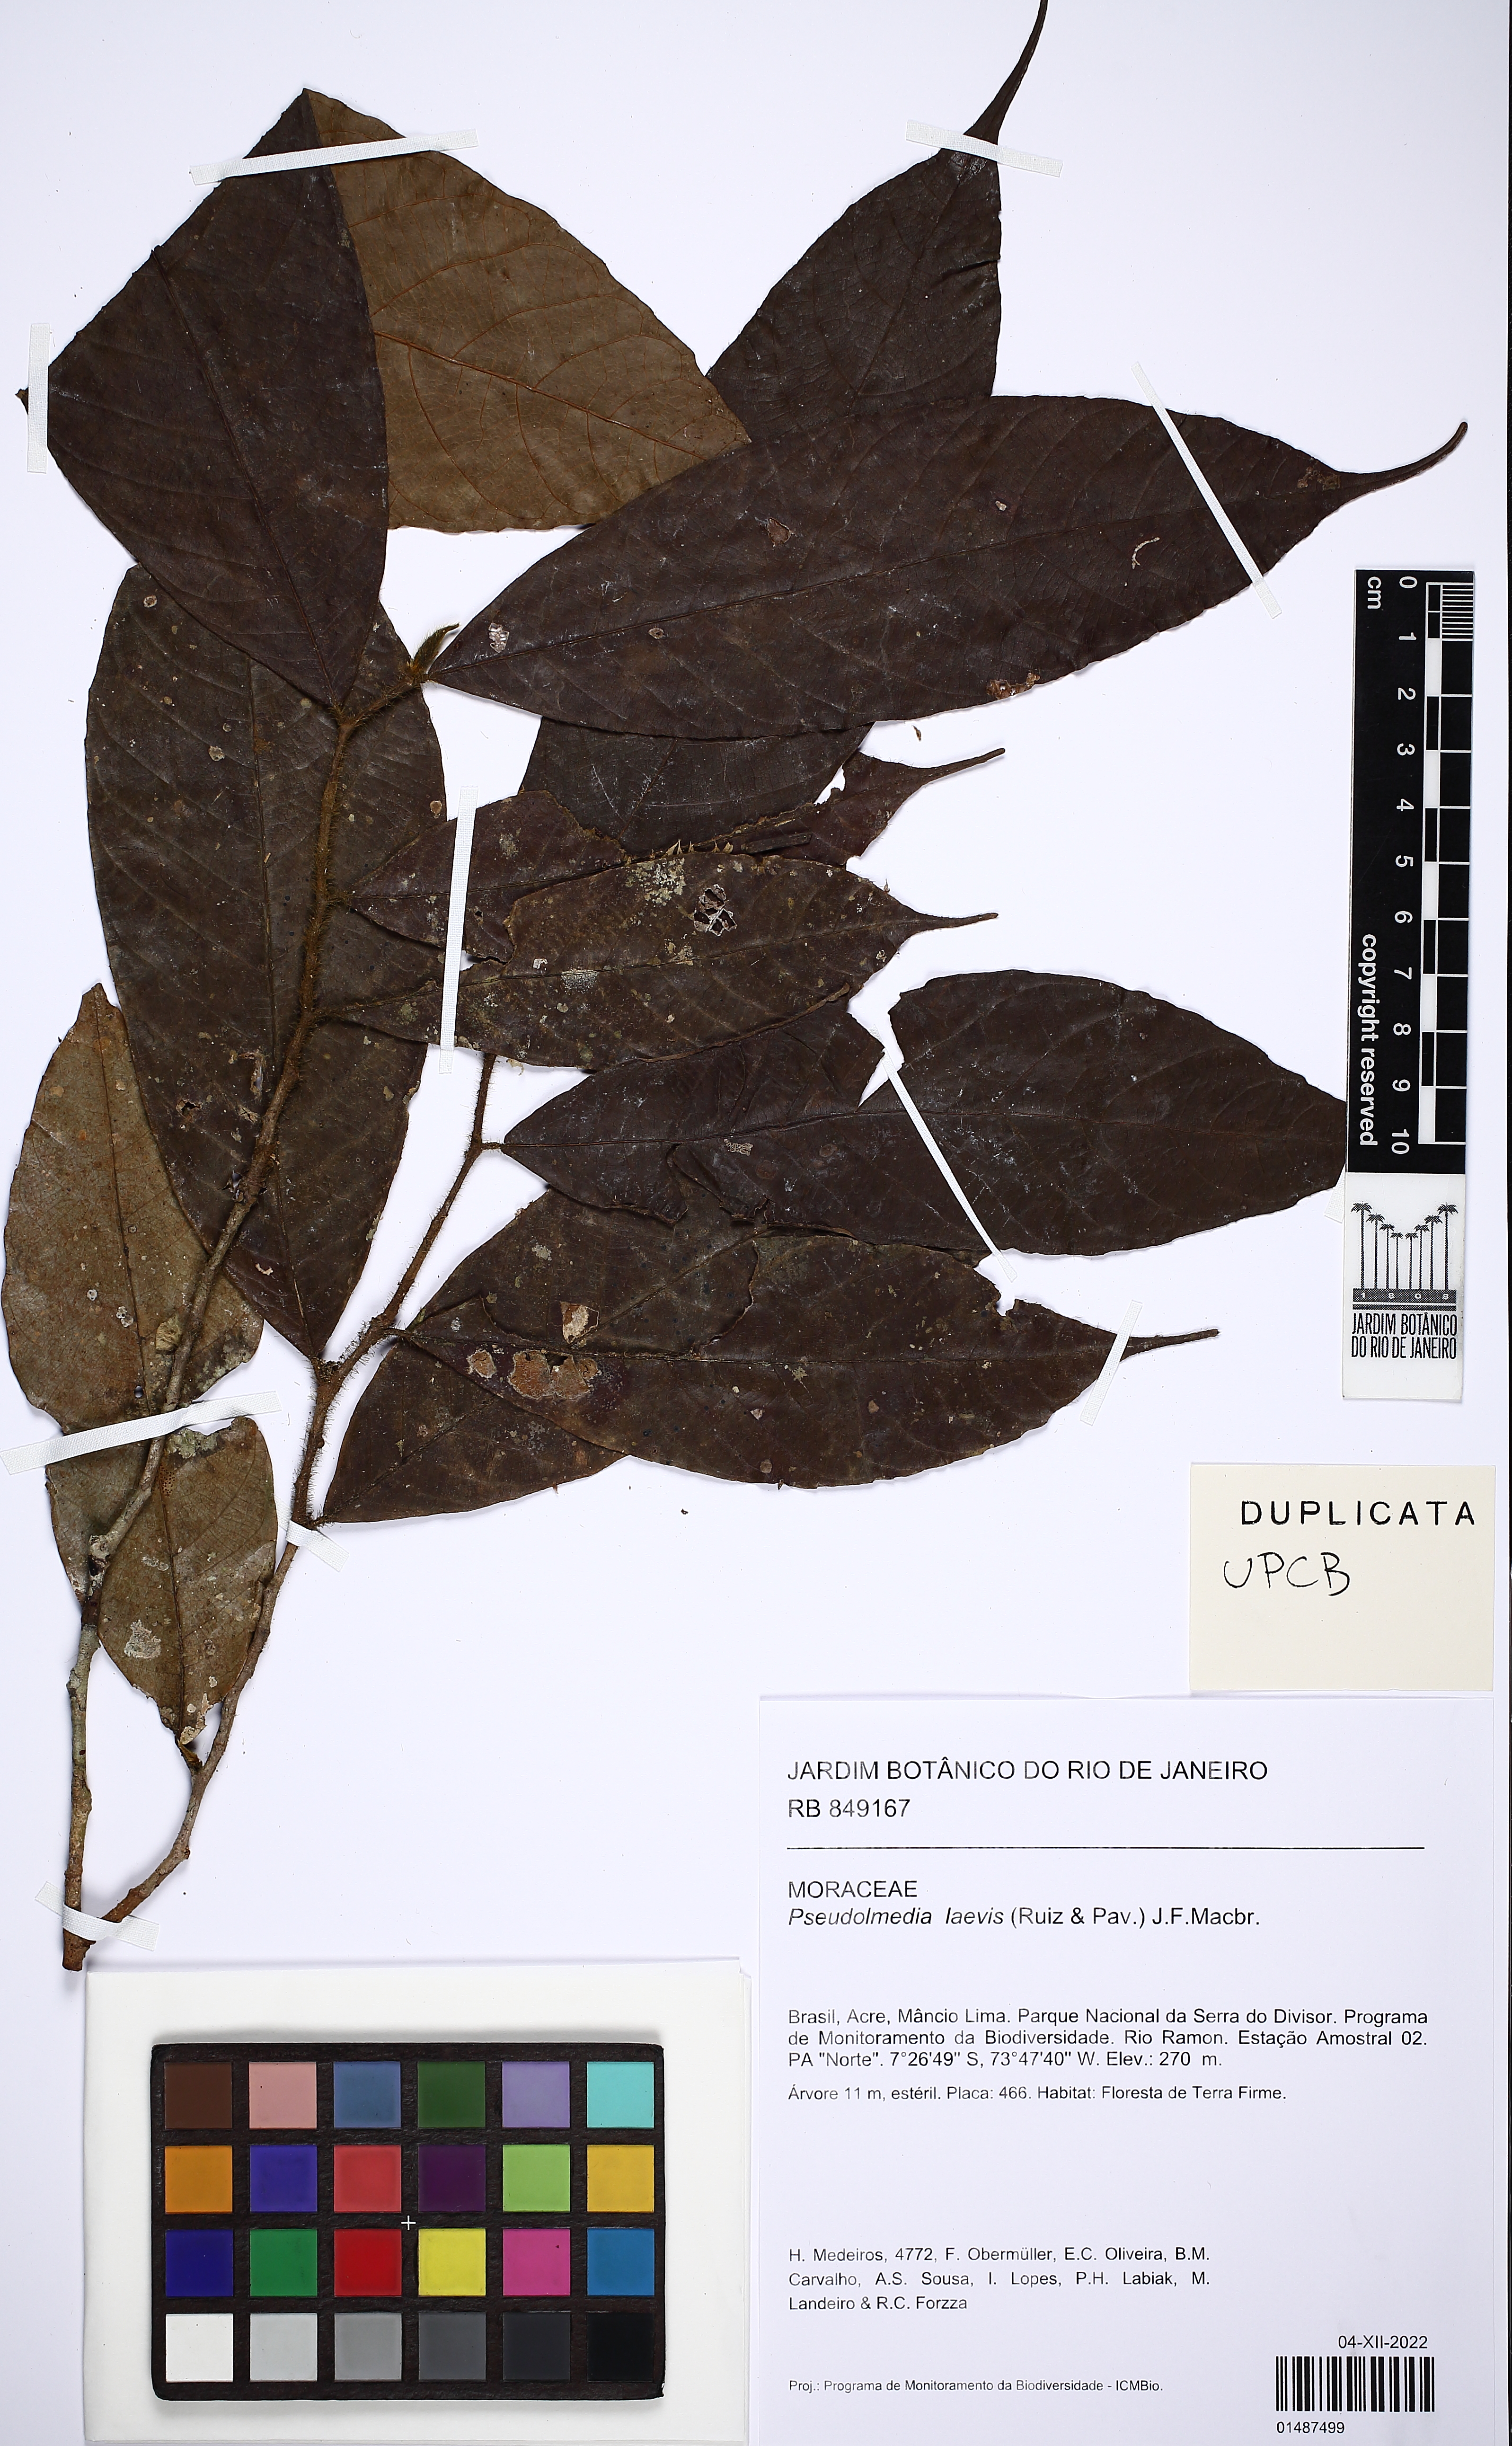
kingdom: Plantae
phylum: Tracheophyta
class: Magnoliopsida
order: Rosales
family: Moraceae
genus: Pseudolmedia
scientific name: Pseudolmedia laevis
